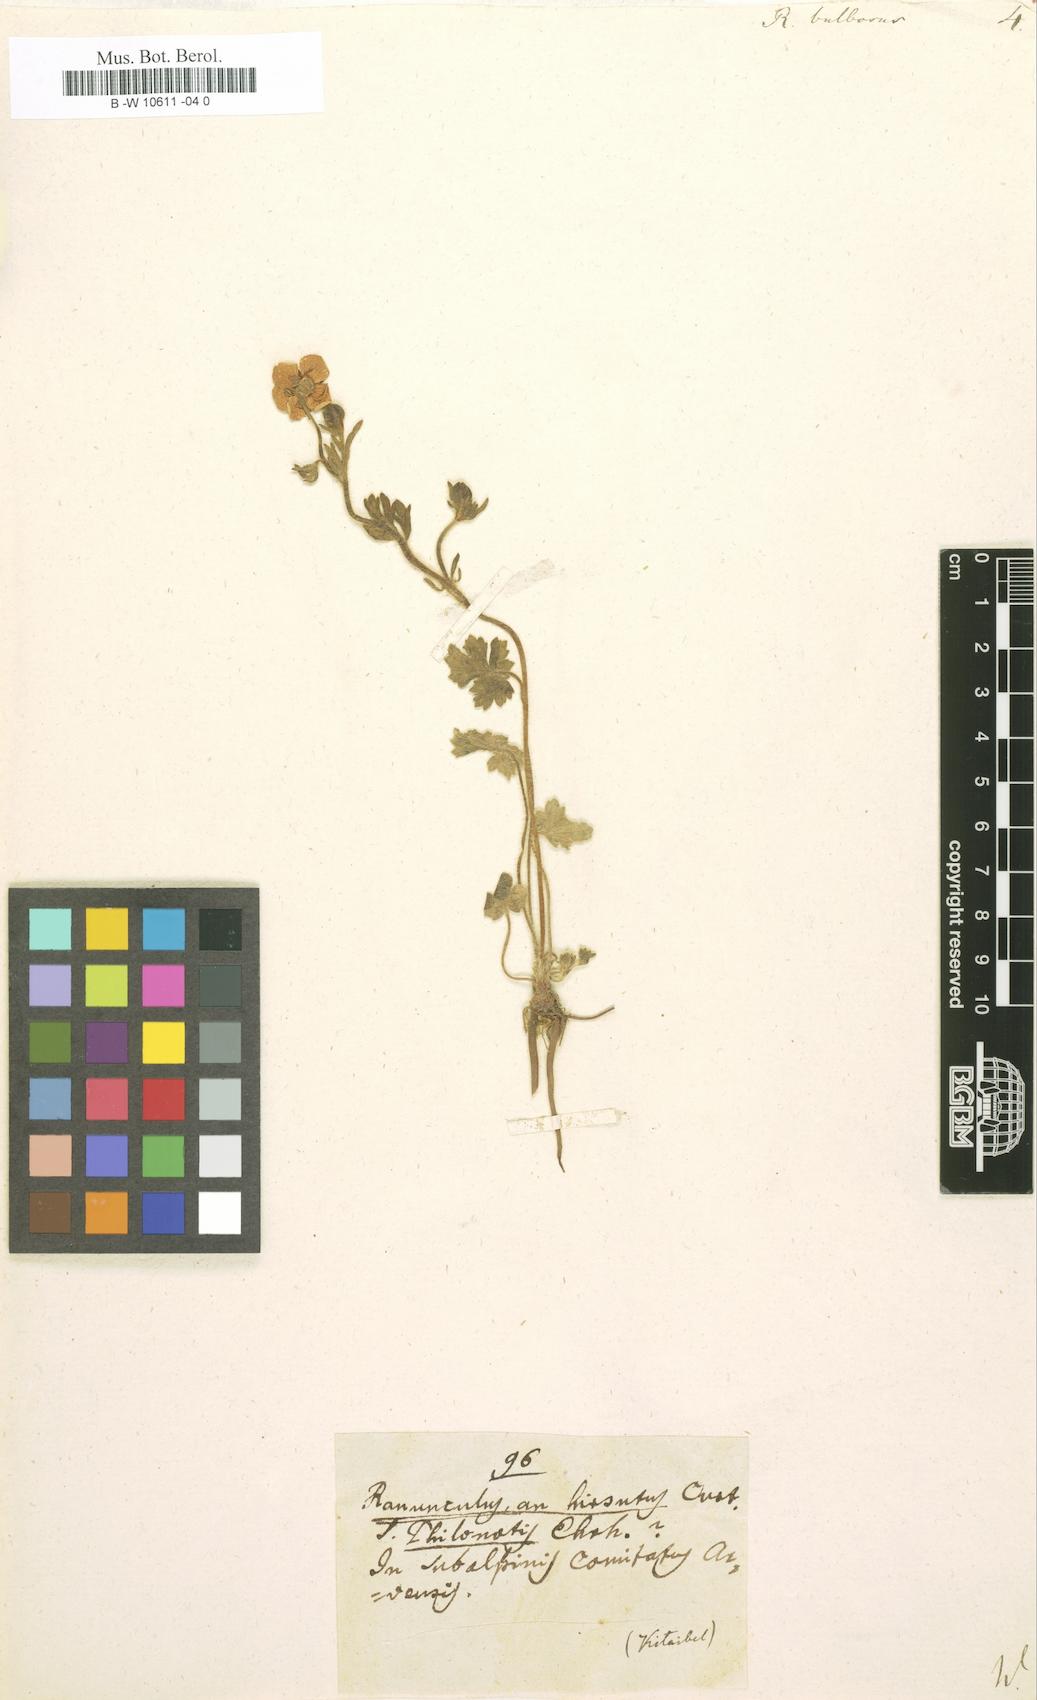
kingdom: Plantae
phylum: Tracheophyta
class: Magnoliopsida
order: Ranunculales
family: Ranunculaceae
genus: Ranunculus
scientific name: Ranunculus bulbosus
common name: Bulbous buttercup
